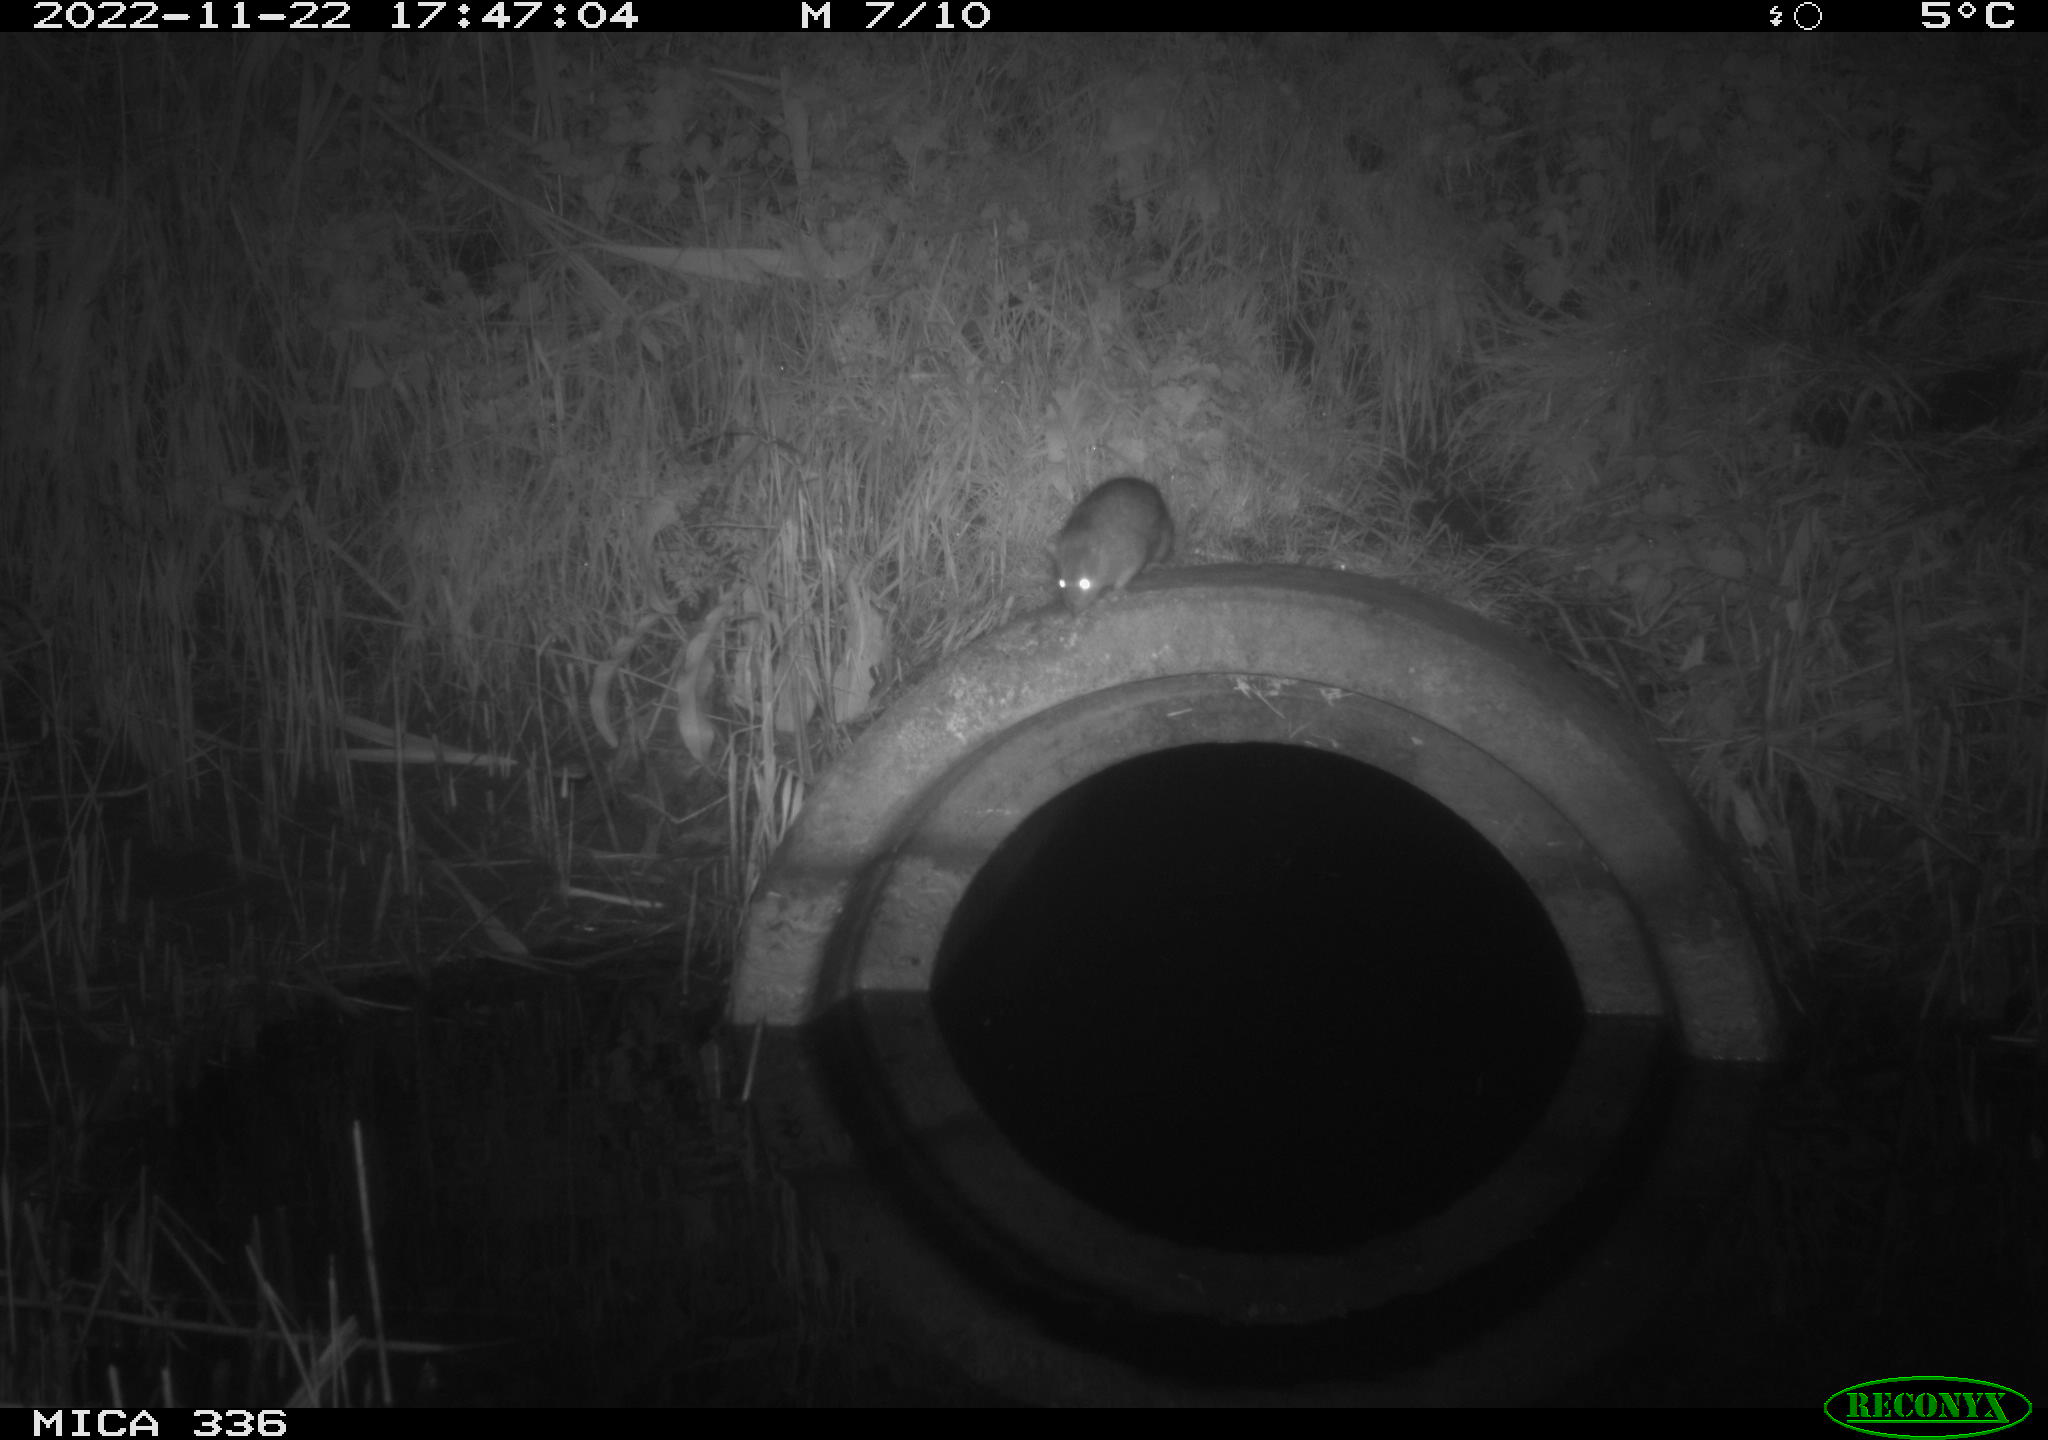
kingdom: Animalia
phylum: Chordata
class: Mammalia
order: Rodentia
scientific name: Rodentia
